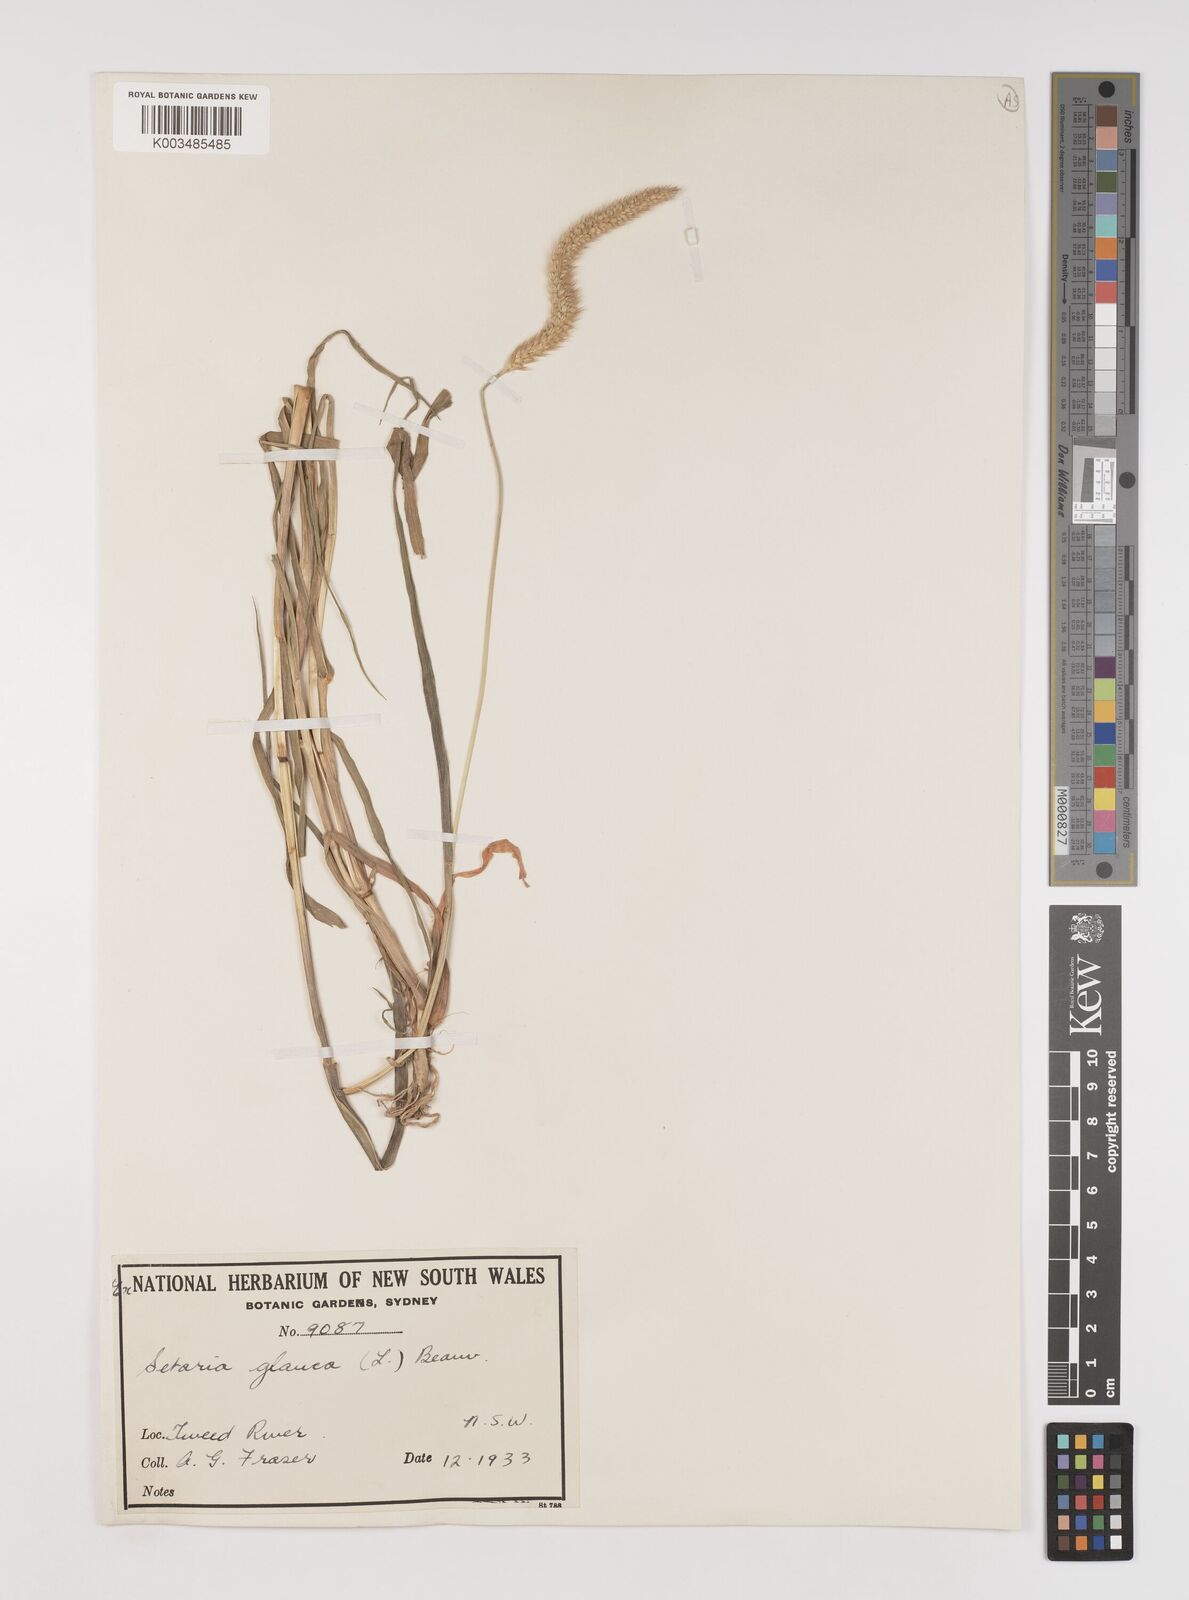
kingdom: Plantae
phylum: Tracheophyta
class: Liliopsida
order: Poales
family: Poaceae
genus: Setaria
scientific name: Setaria pumila
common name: Yellow bristle-grass
